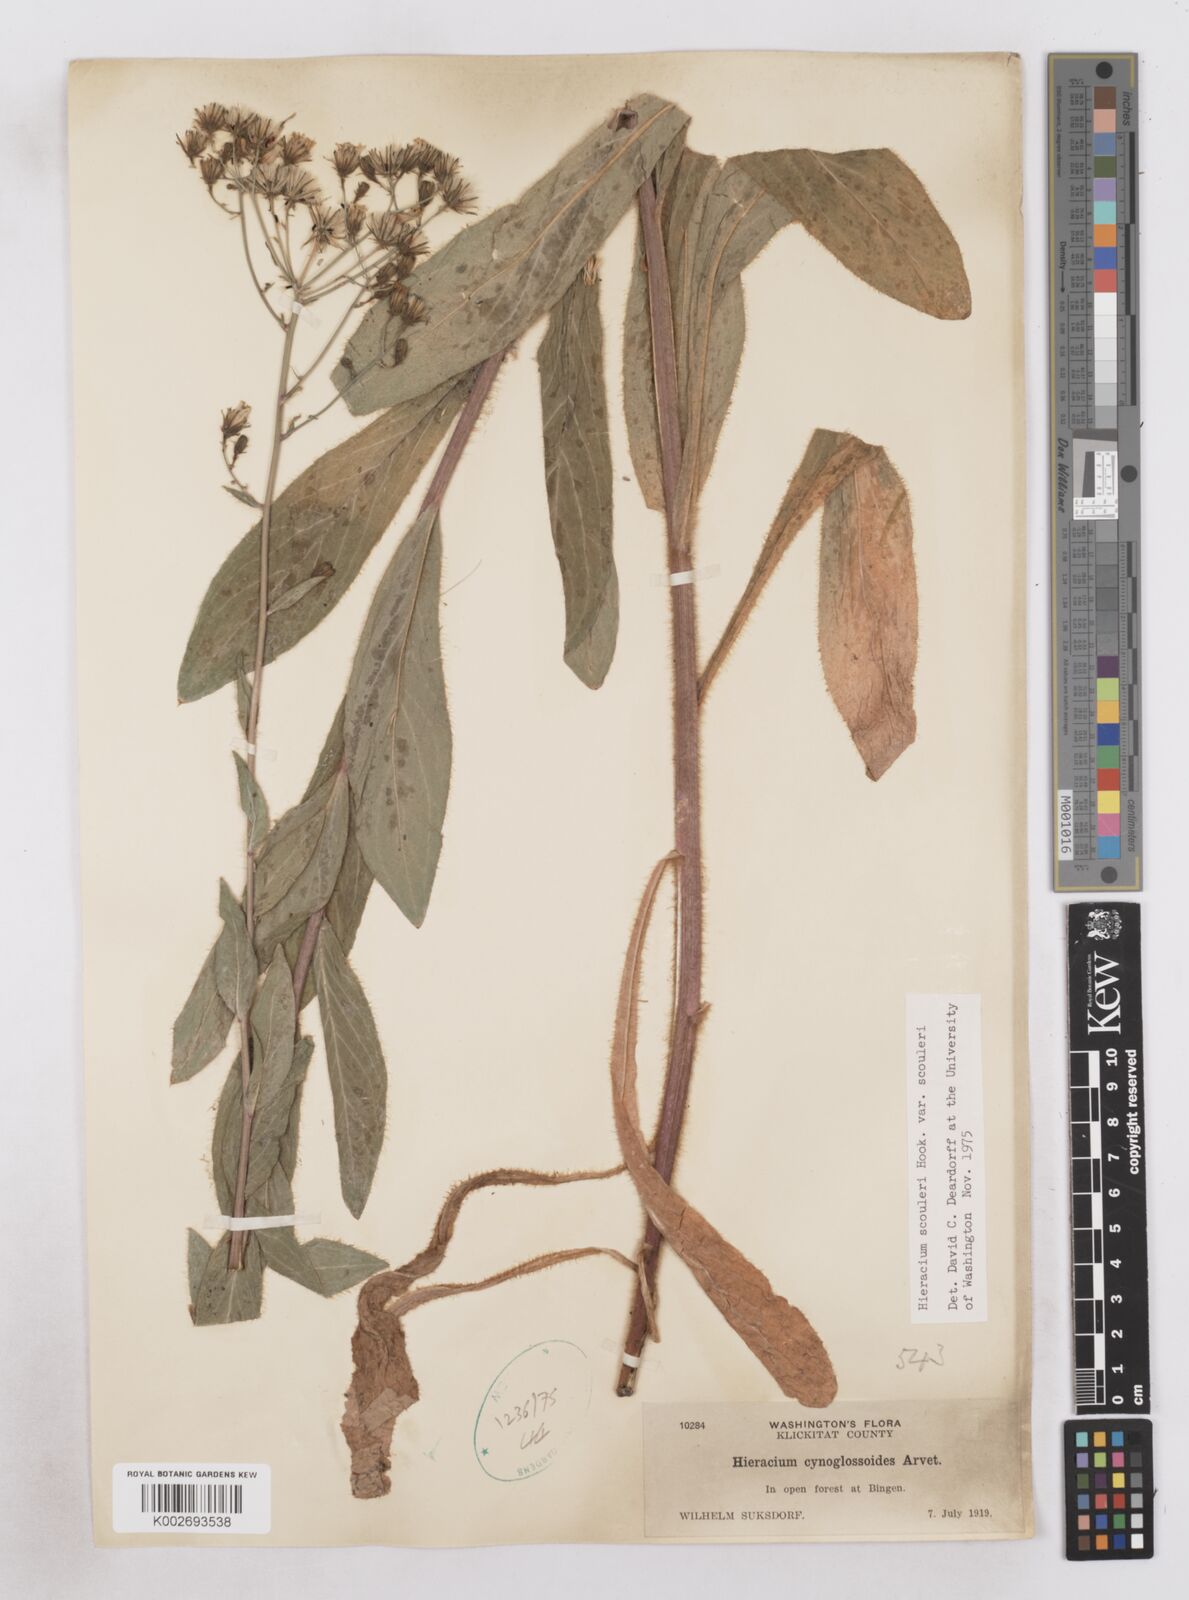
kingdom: Plantae
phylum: Tracheophyta
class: Magnoliopsida
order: Asterales
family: Asteraceae
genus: Hieracium
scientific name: Hieracium scouleri
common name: Hound's-tongue hawkweed
